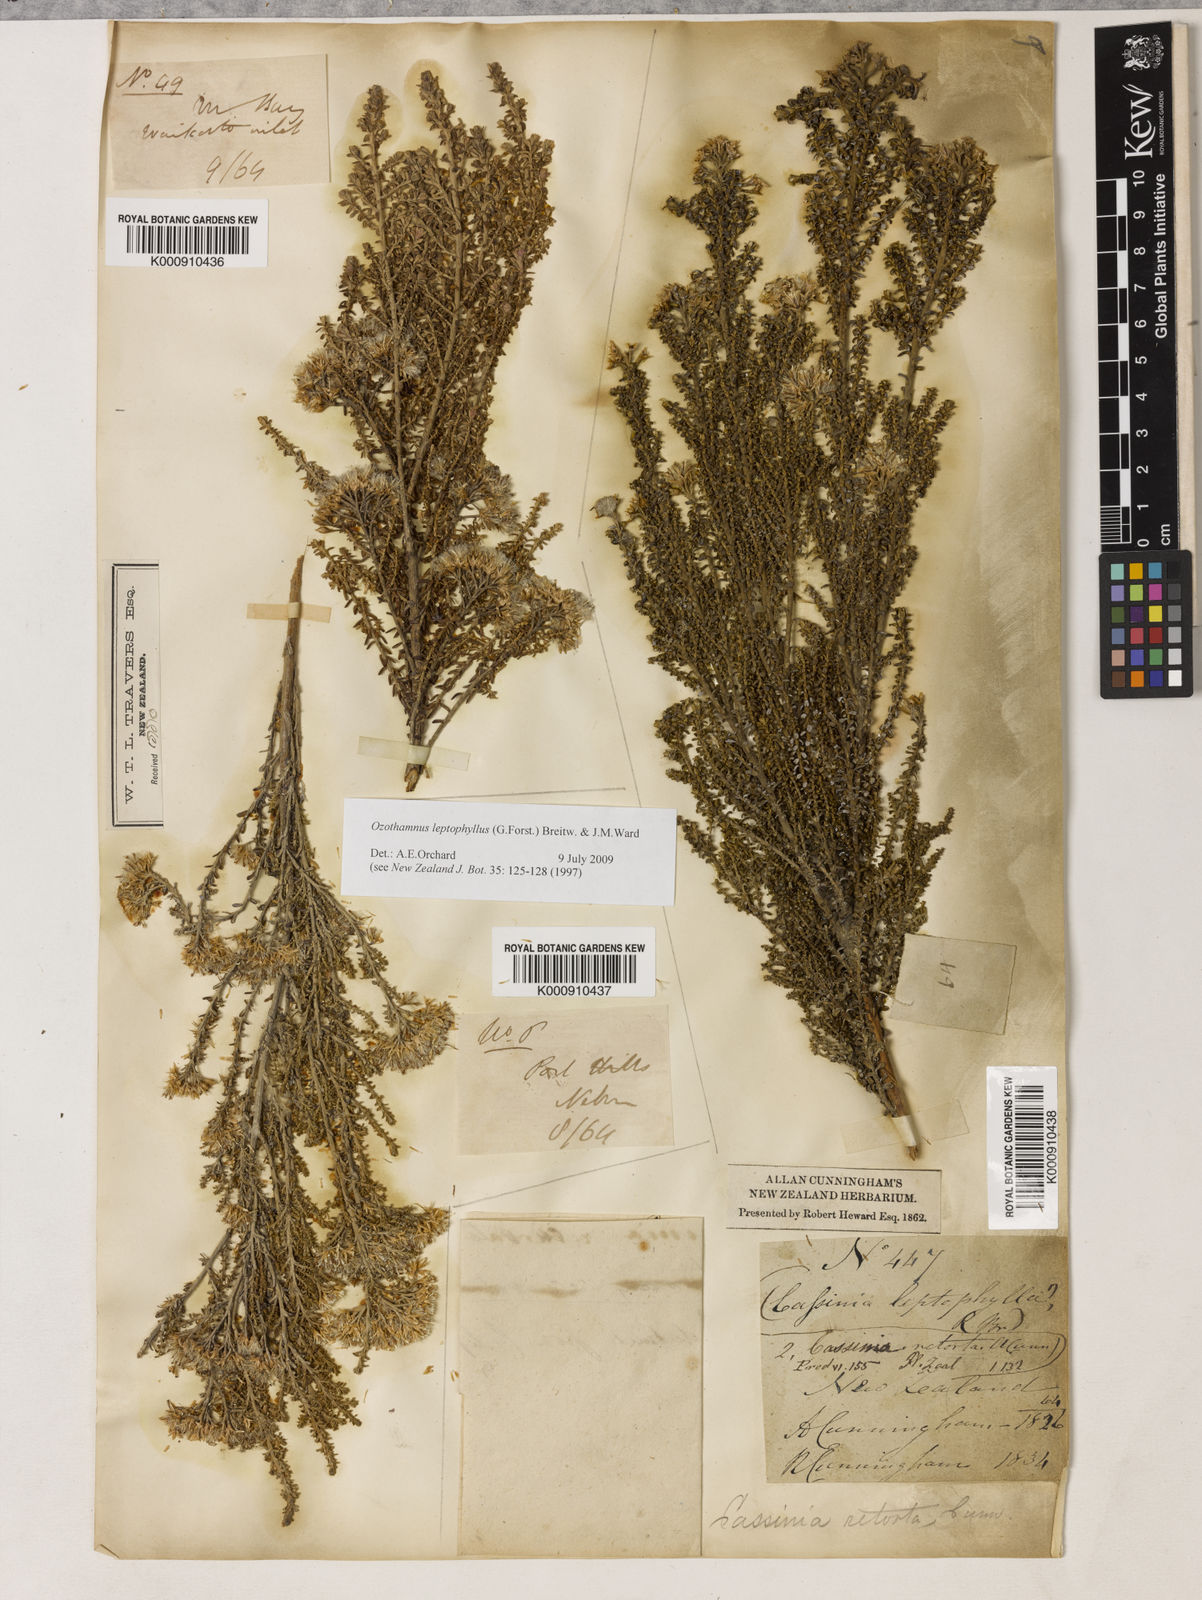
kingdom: Plantae
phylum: Tracheophyta
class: Magnoliopsida
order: Asterales
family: Asteraceae
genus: Ozothamnus
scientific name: Ozothamnus leptophyllus
